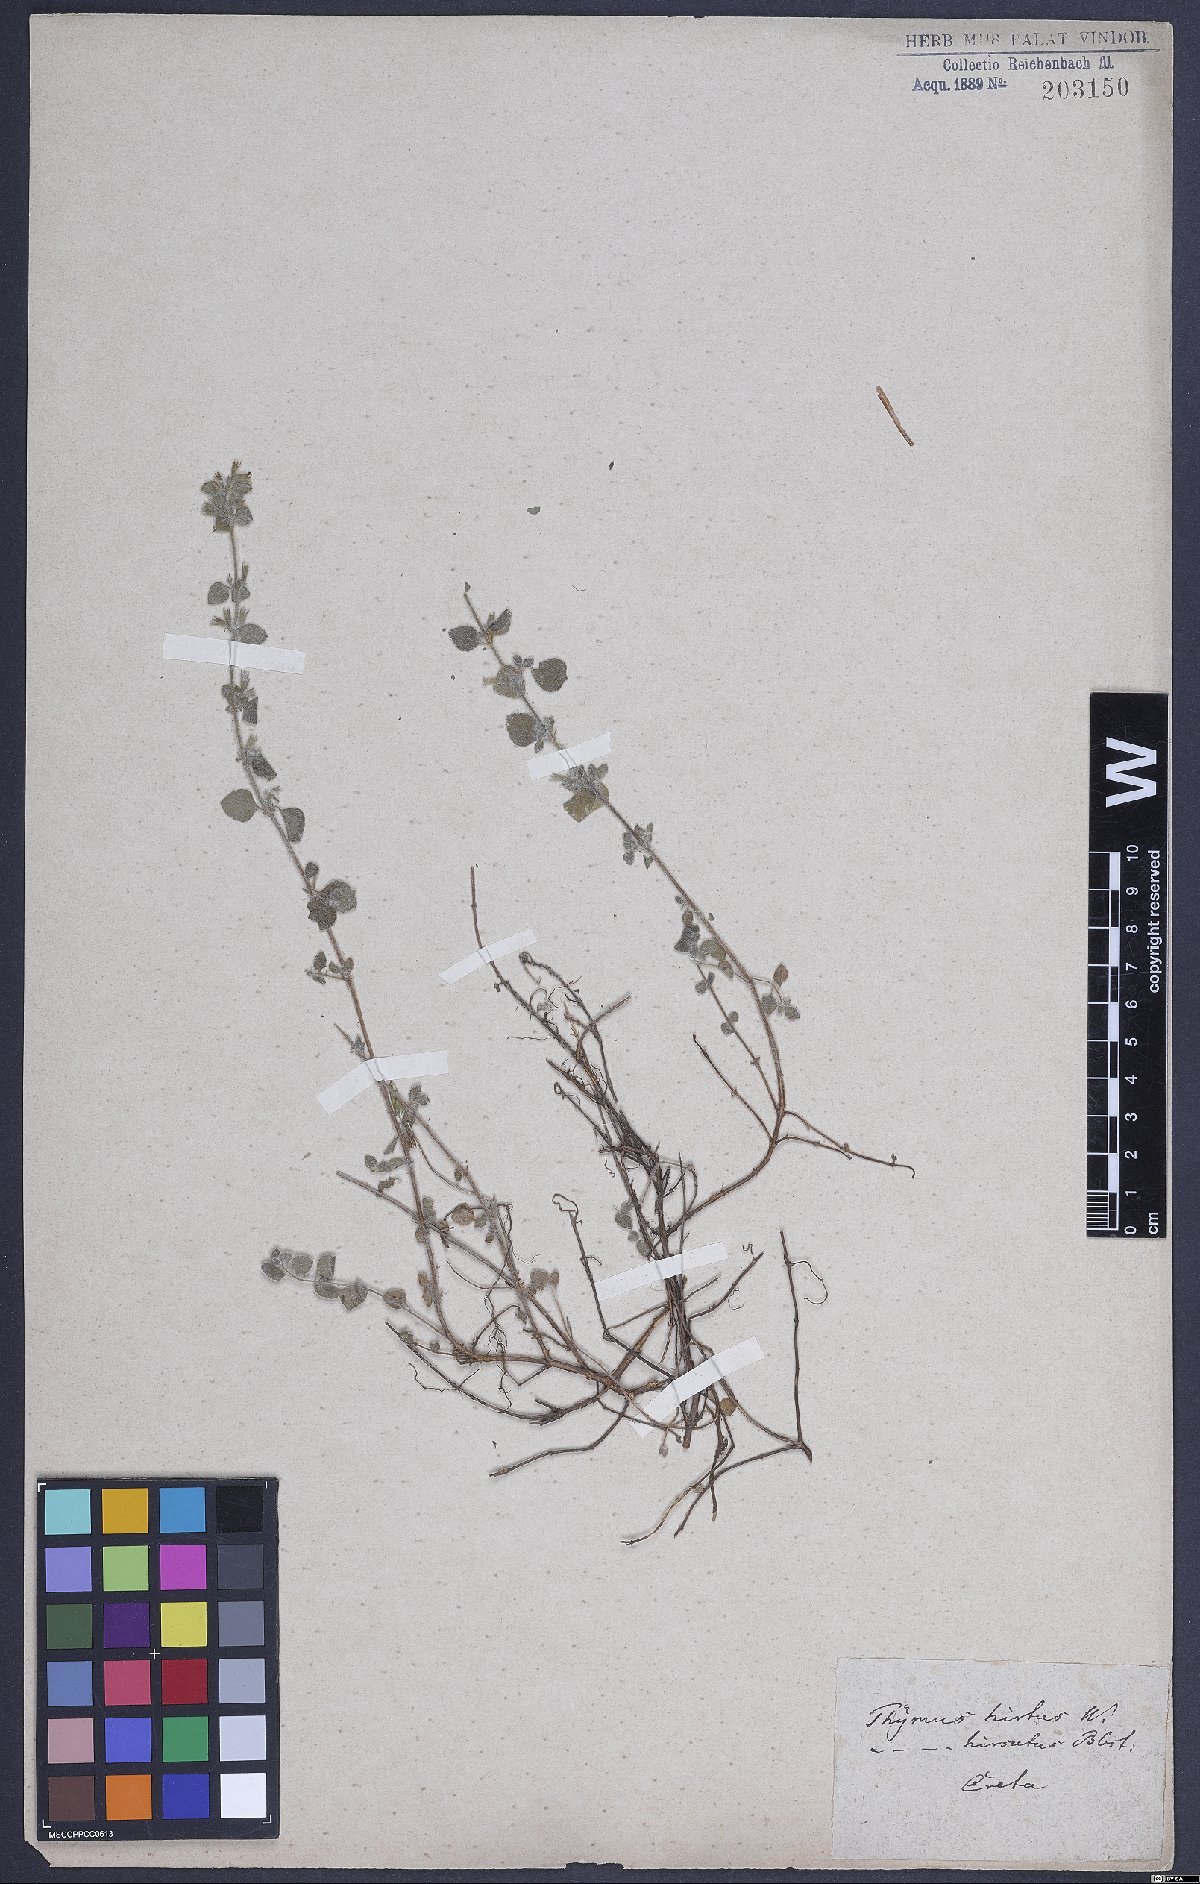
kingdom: Plantae
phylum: Tracheophyta
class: Magnoliopsida
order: Lamiales
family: Lamiaceae
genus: Clinopodium
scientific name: Clinopodium creticum
